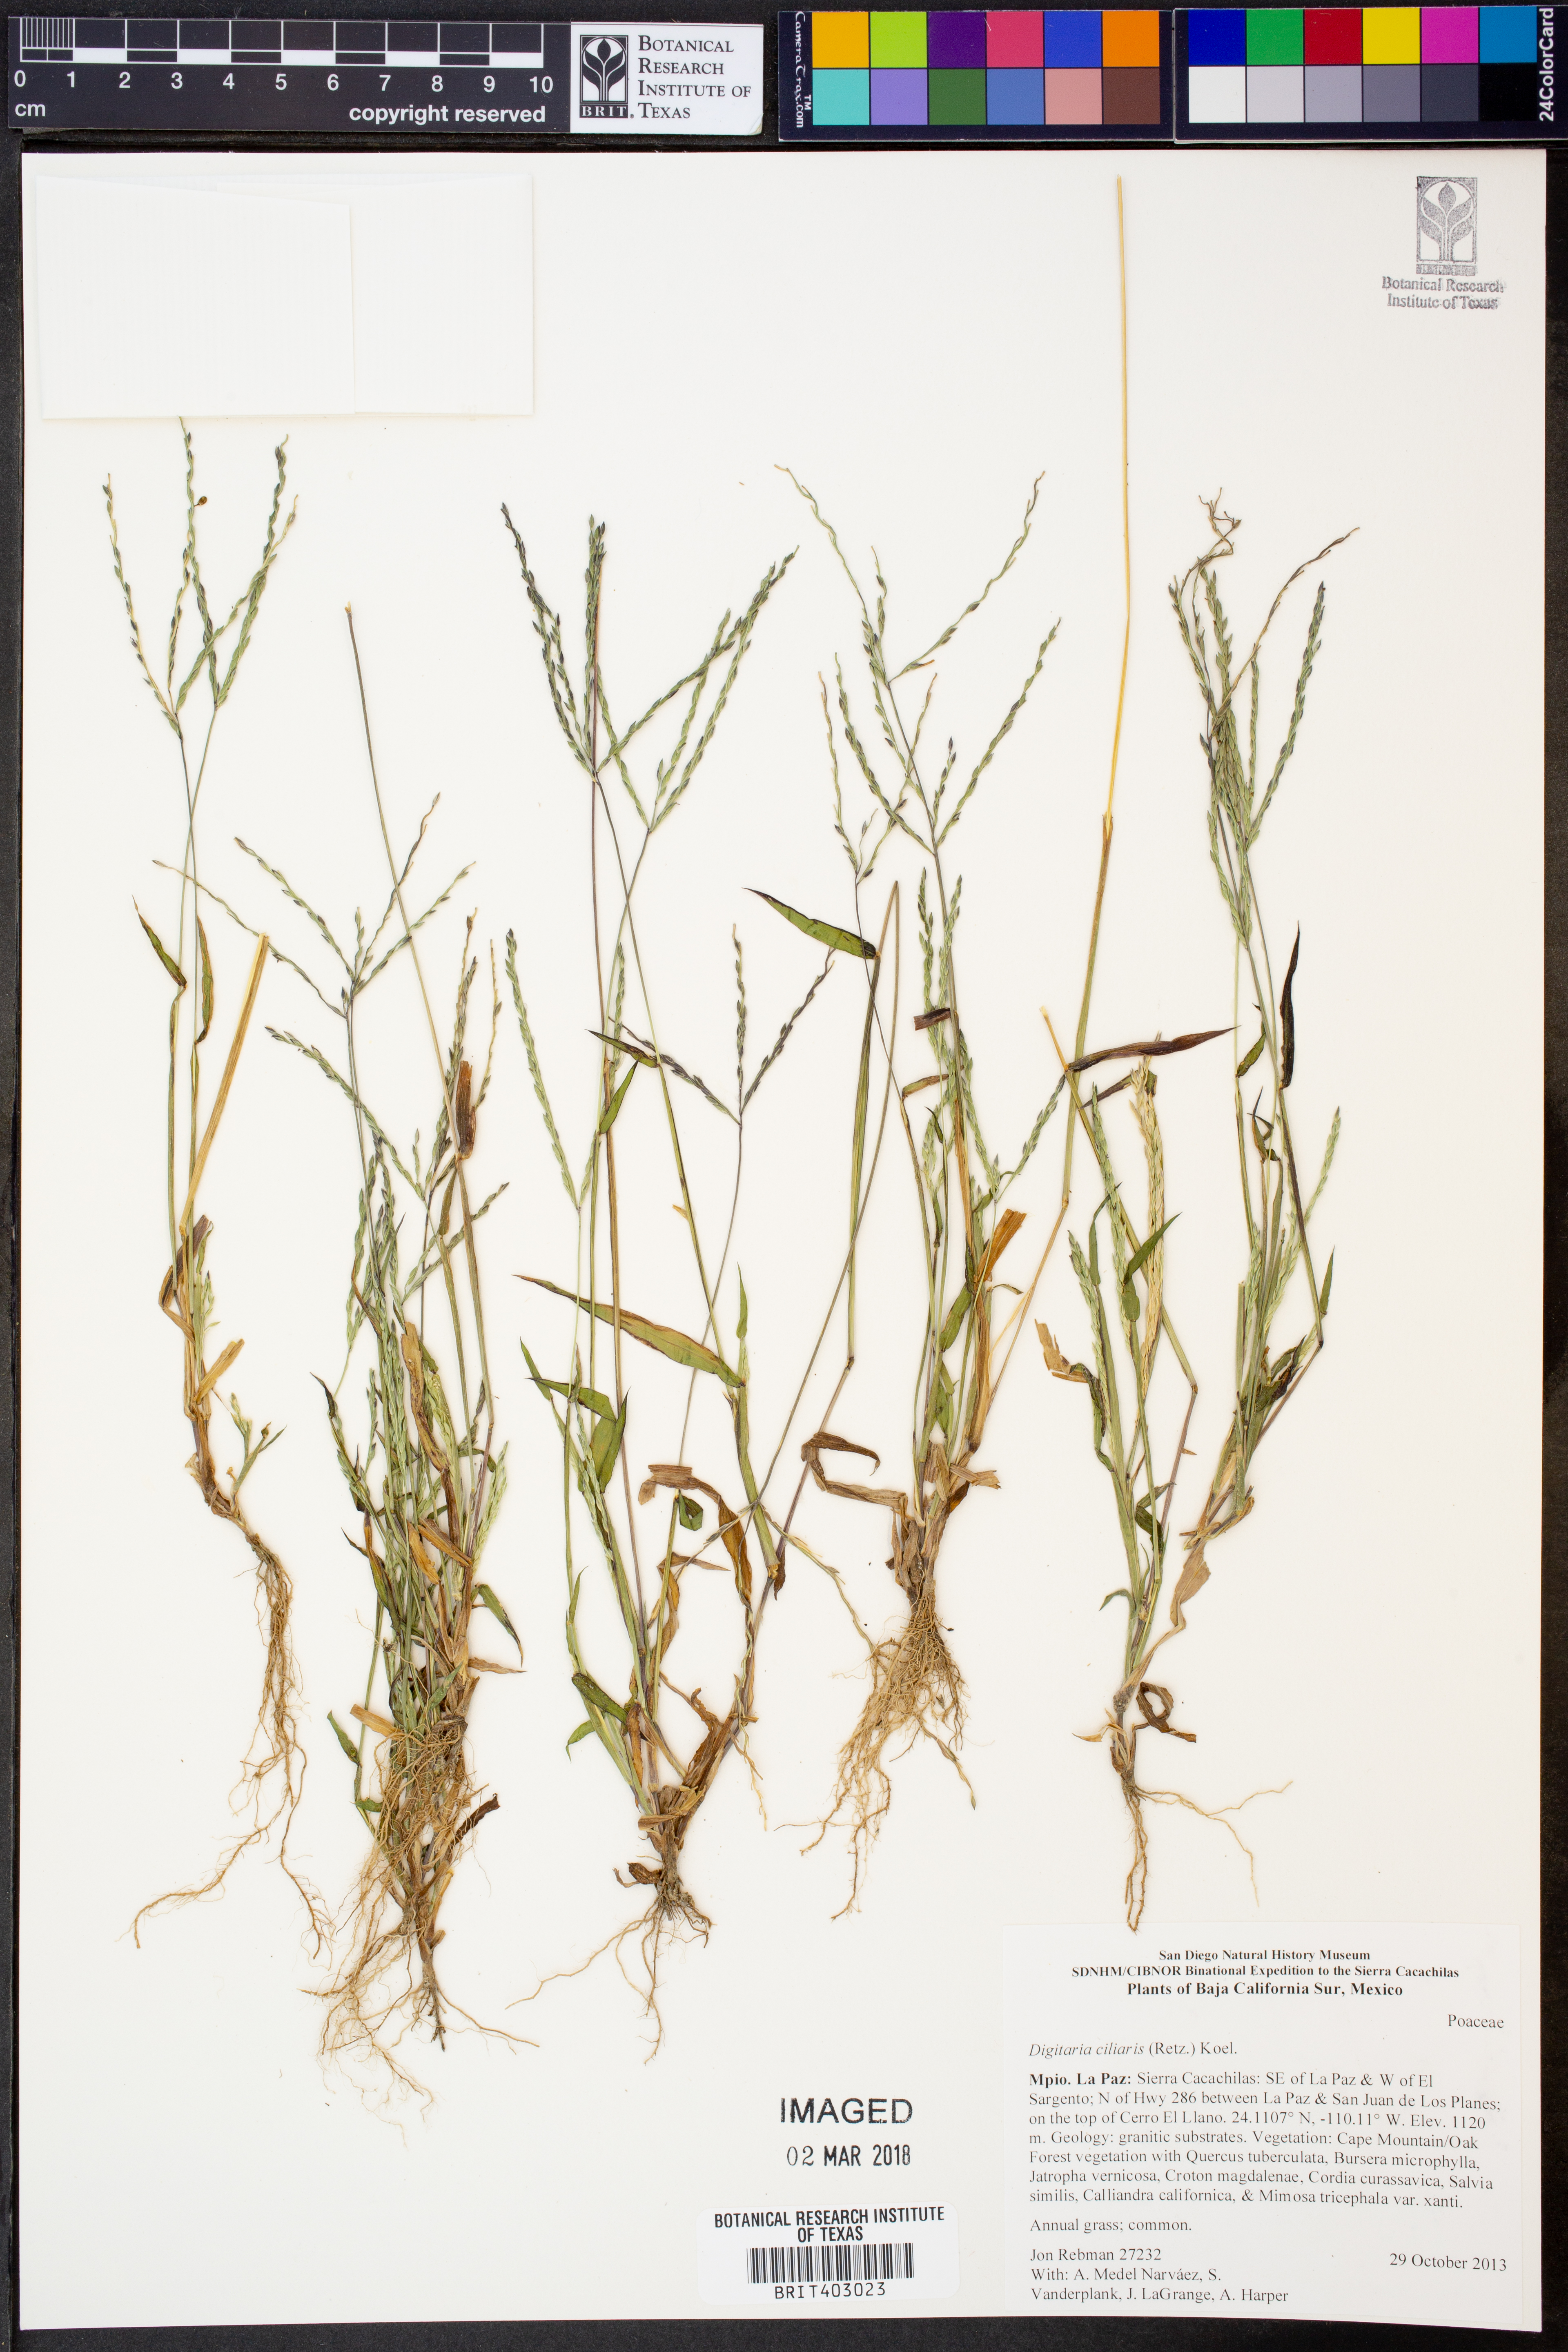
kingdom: Plantae
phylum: Tracheophyta
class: Liliopsida
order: Poales
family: Poaceae
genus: Digitaria
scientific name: Digitaria ciliaris
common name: Tropical finger-grass
